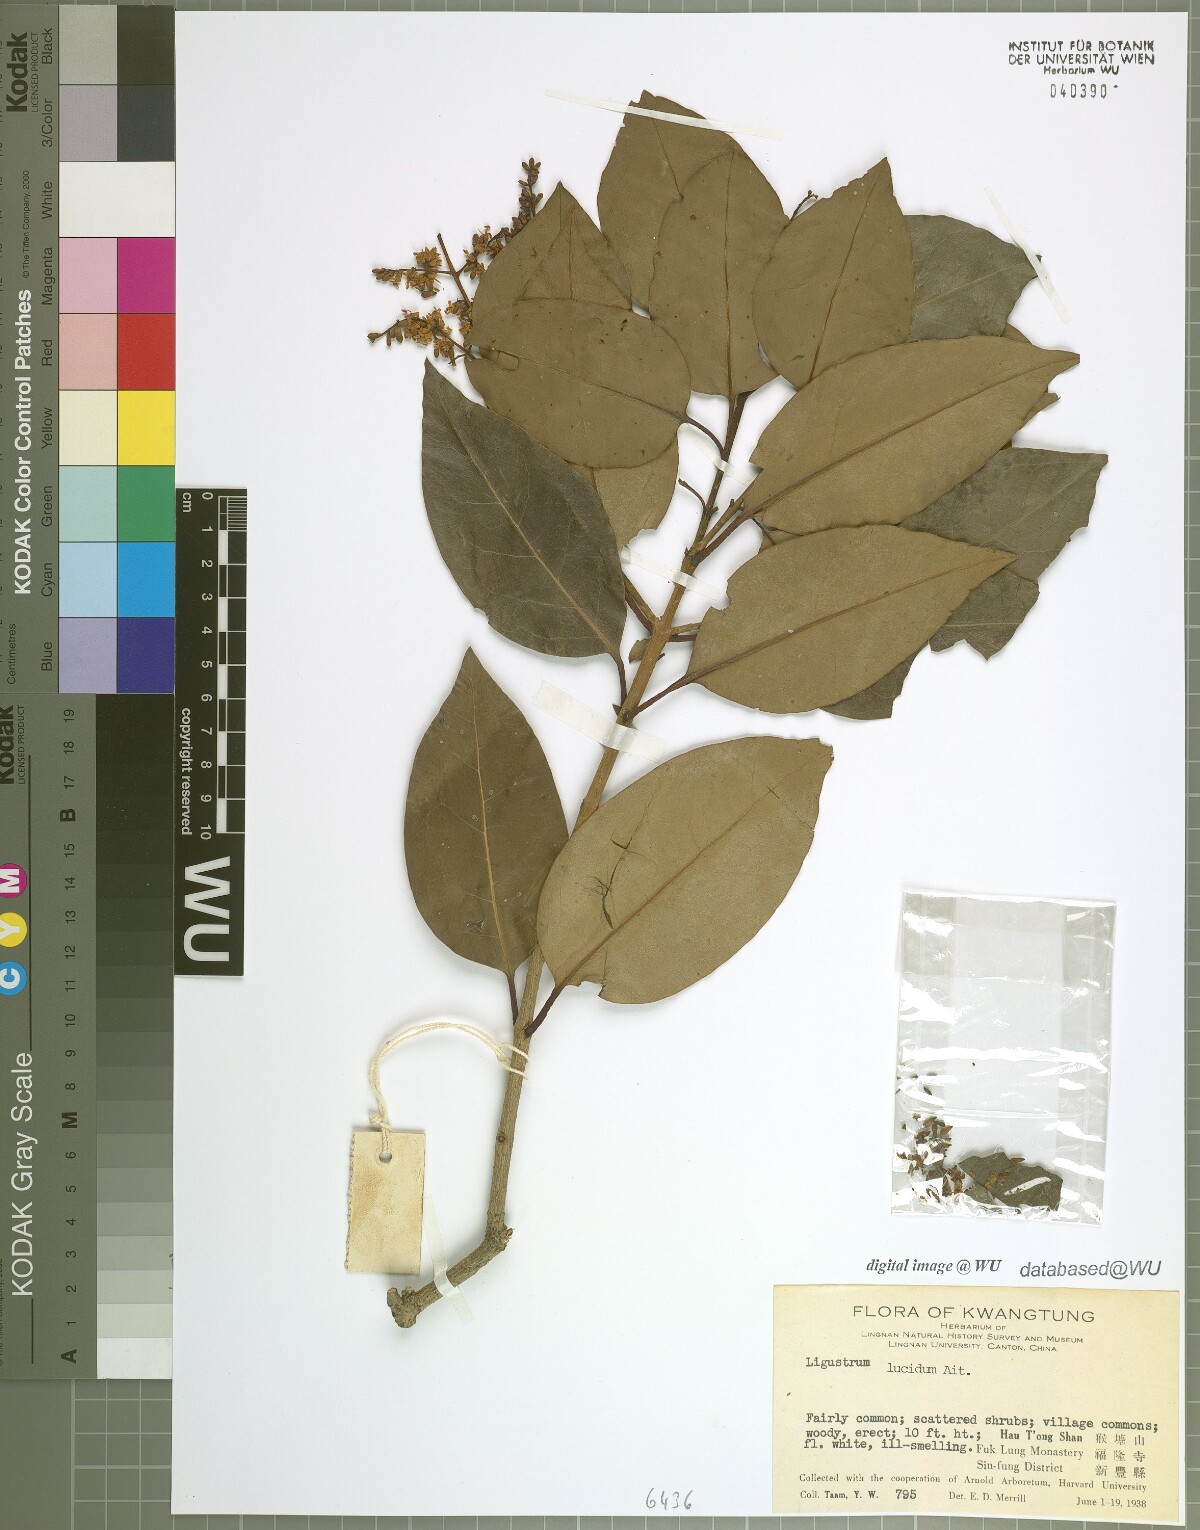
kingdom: Plantae
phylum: Tracheophyta
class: Magnoliopsida
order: Lamiales
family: Oleaceae
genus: Ligustrum
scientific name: Ligustrum lucidum
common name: Glossy privet
